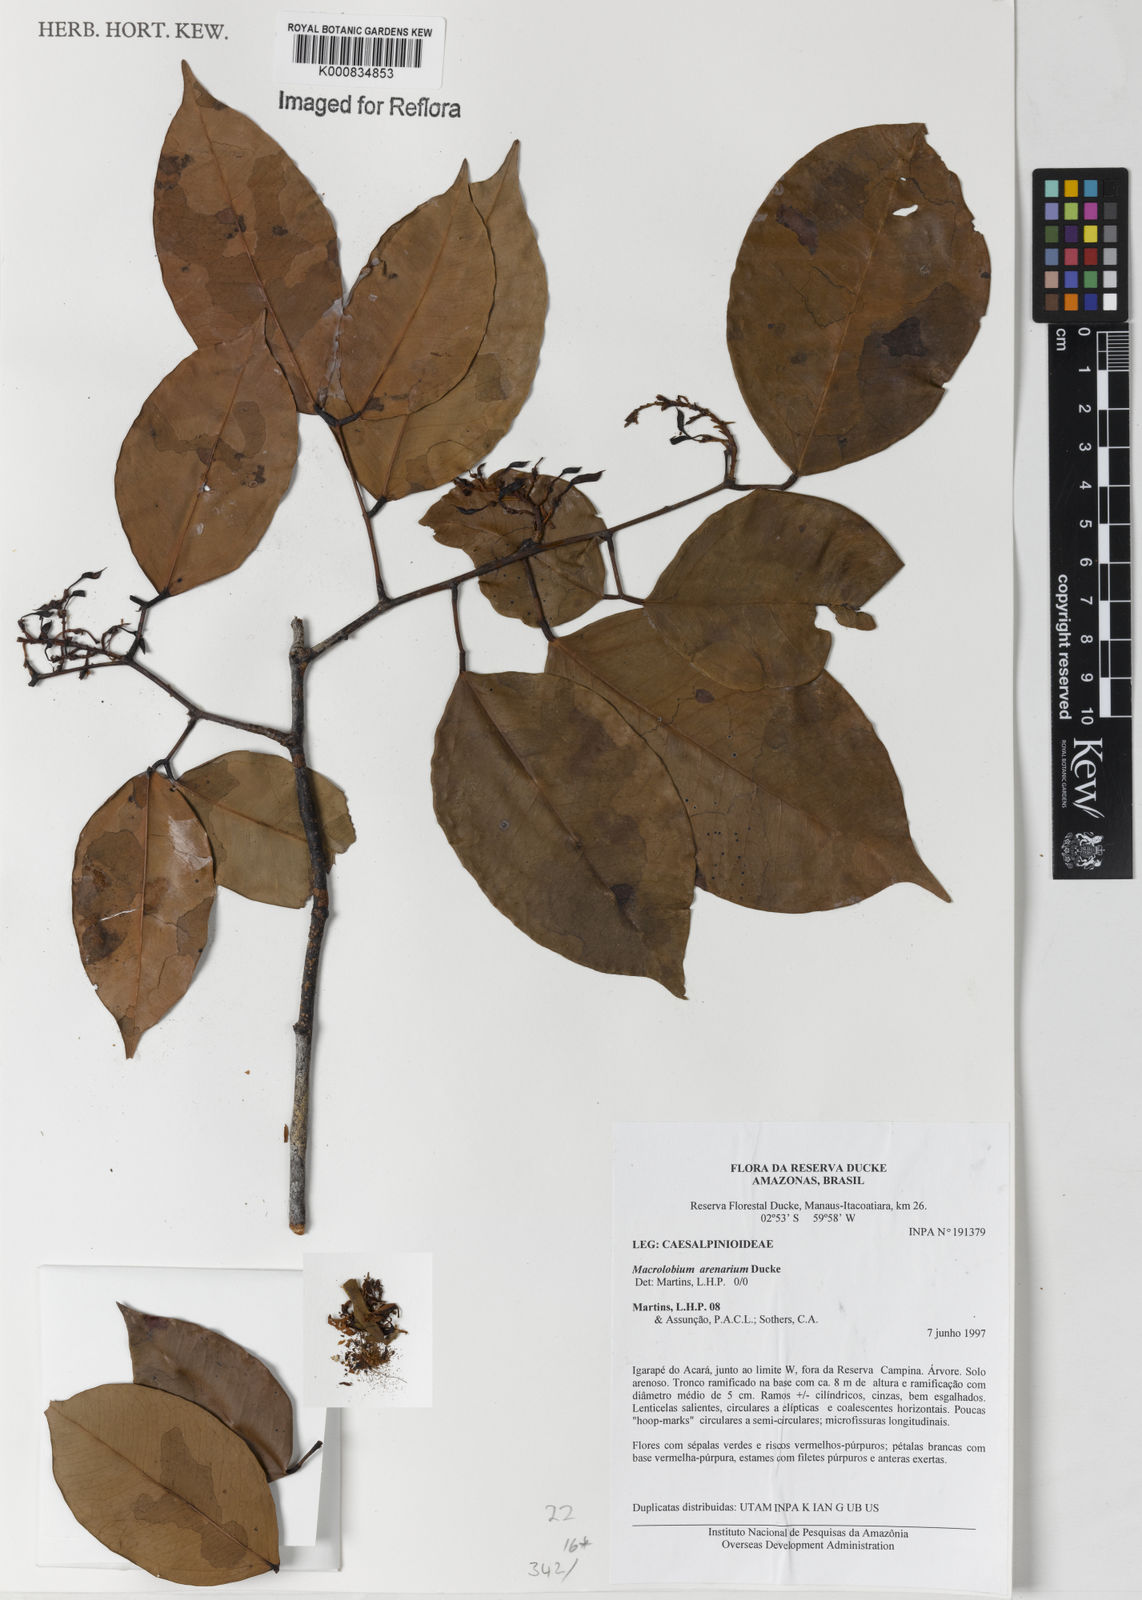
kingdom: Plantae
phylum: Tracheophyta
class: Magnoliopsida
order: Fabales
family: Fabaceae
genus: Macrolobium
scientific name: Macrolobium arenarium
